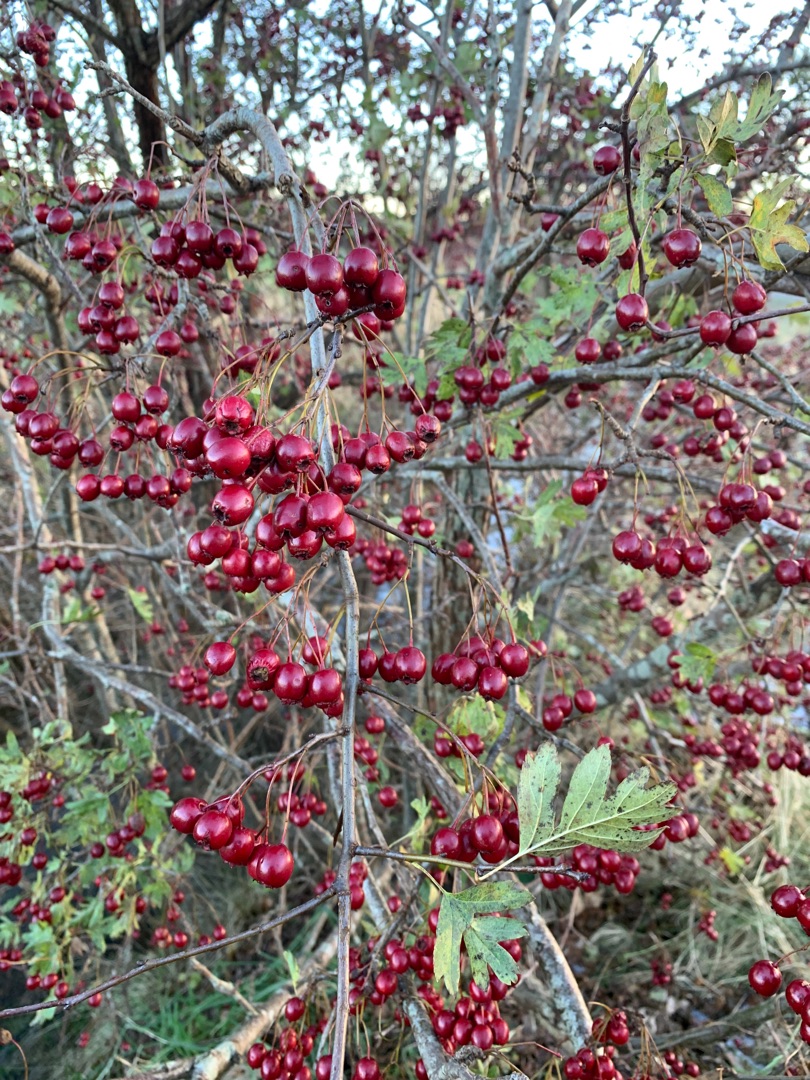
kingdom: Plantae
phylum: Tracheophyta
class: Magnoliopsida
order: Rosales
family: Rosaceae
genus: Crataegus
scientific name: Crataegus monogyna
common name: Engriflet hvidtjørn
